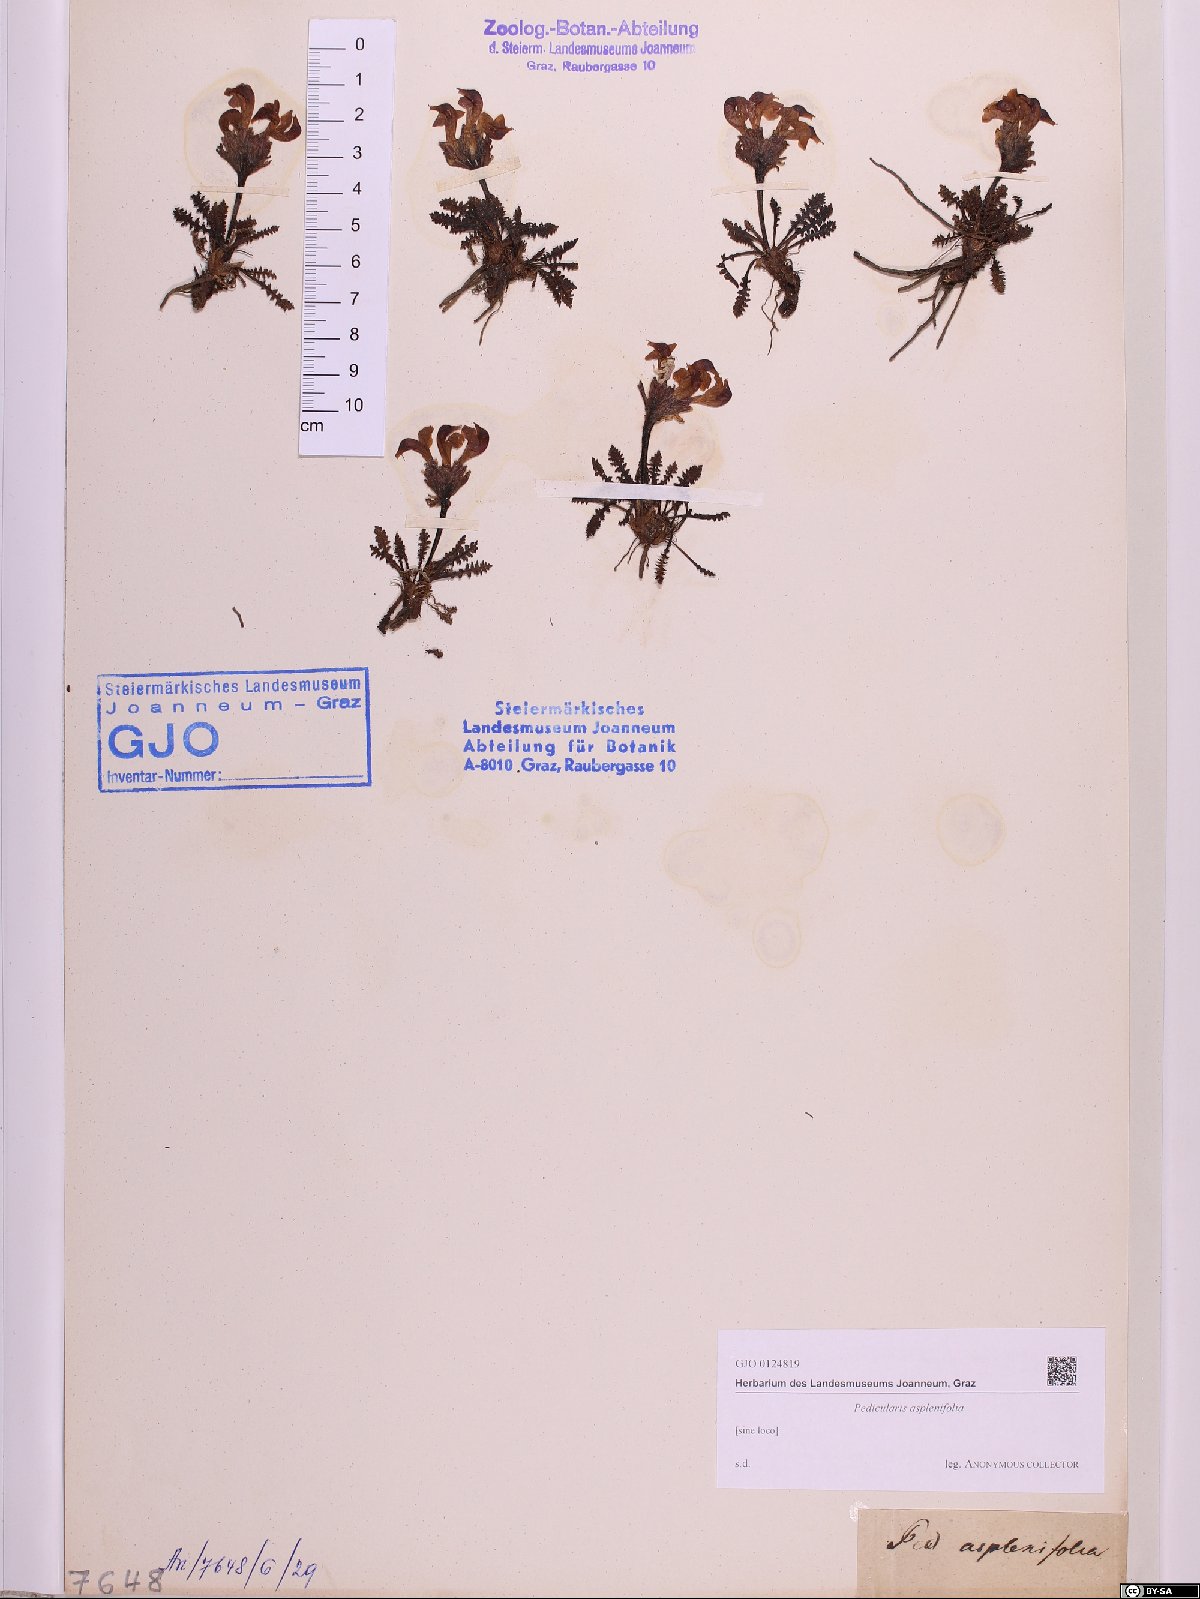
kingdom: Plantae
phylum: Tracheophyta
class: Magnoliopsida
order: Lamiales
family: Orobanchaceae
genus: Pedicularis
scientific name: Pedicularis asplenifolia
